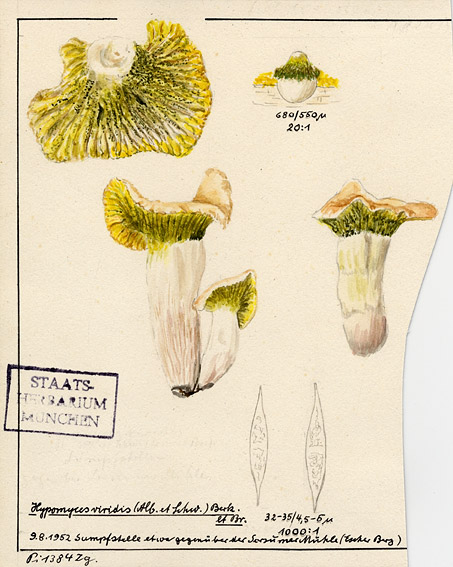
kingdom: Fungi
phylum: Ascomycota
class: Sordariomycetes
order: Hypocreales
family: Hypocreaceae
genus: Hypomyces
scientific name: Hypomyces luteovirens
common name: Yellow-green russula mold
